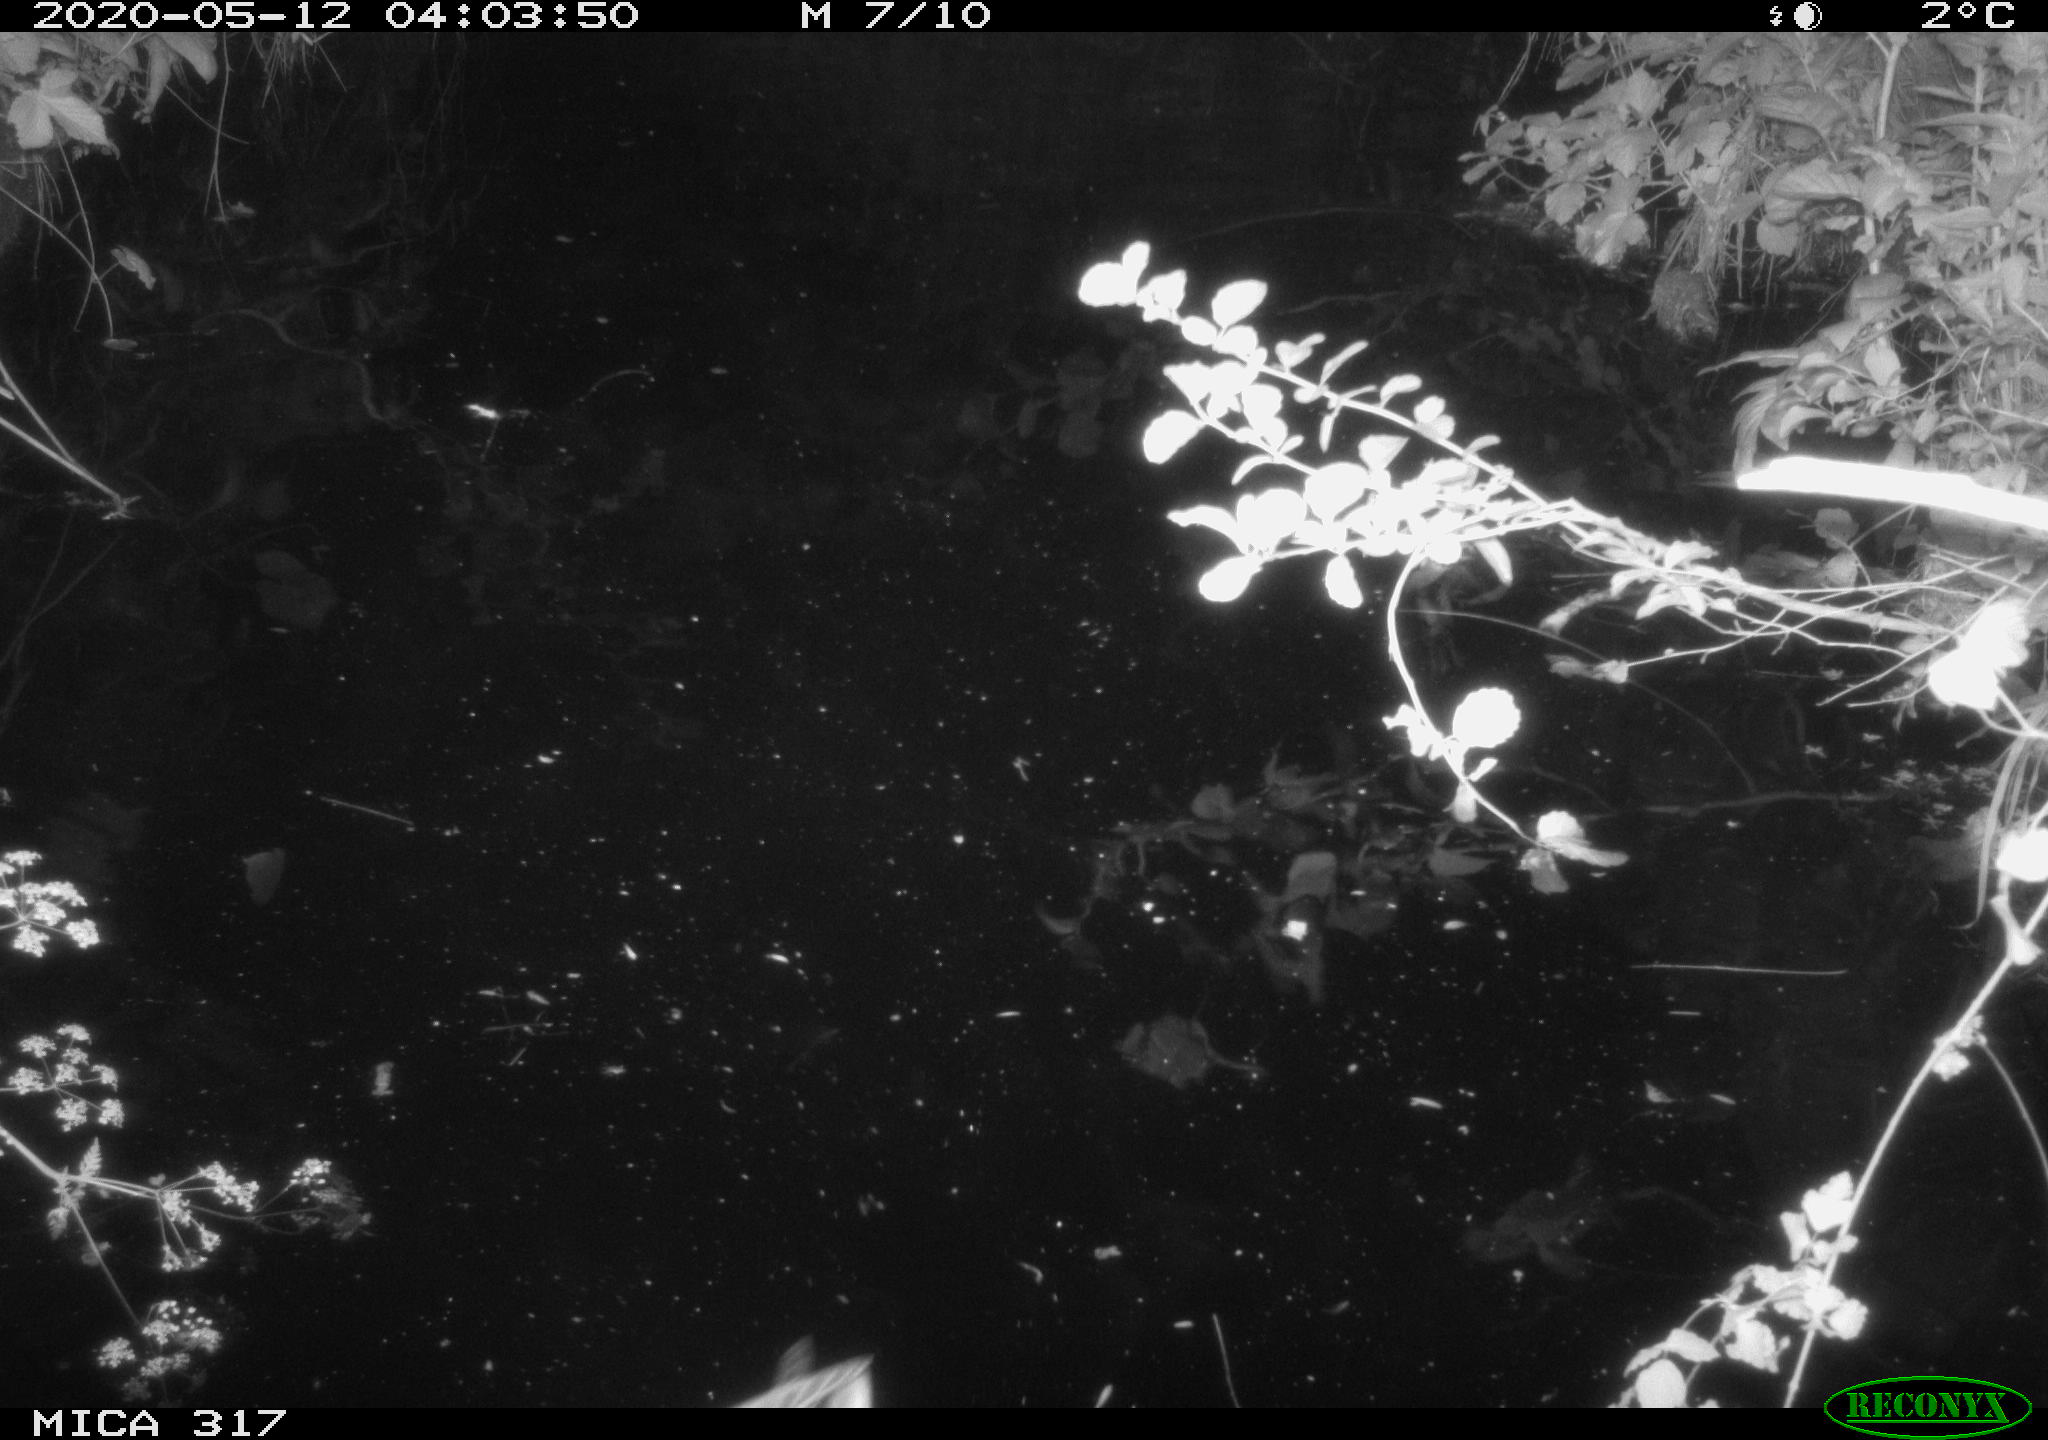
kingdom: Animalia
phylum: Chordata
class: Aves
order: Anseriformes
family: Anatidae
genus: Anas
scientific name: Anas platyrhynchos
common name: Mallard
